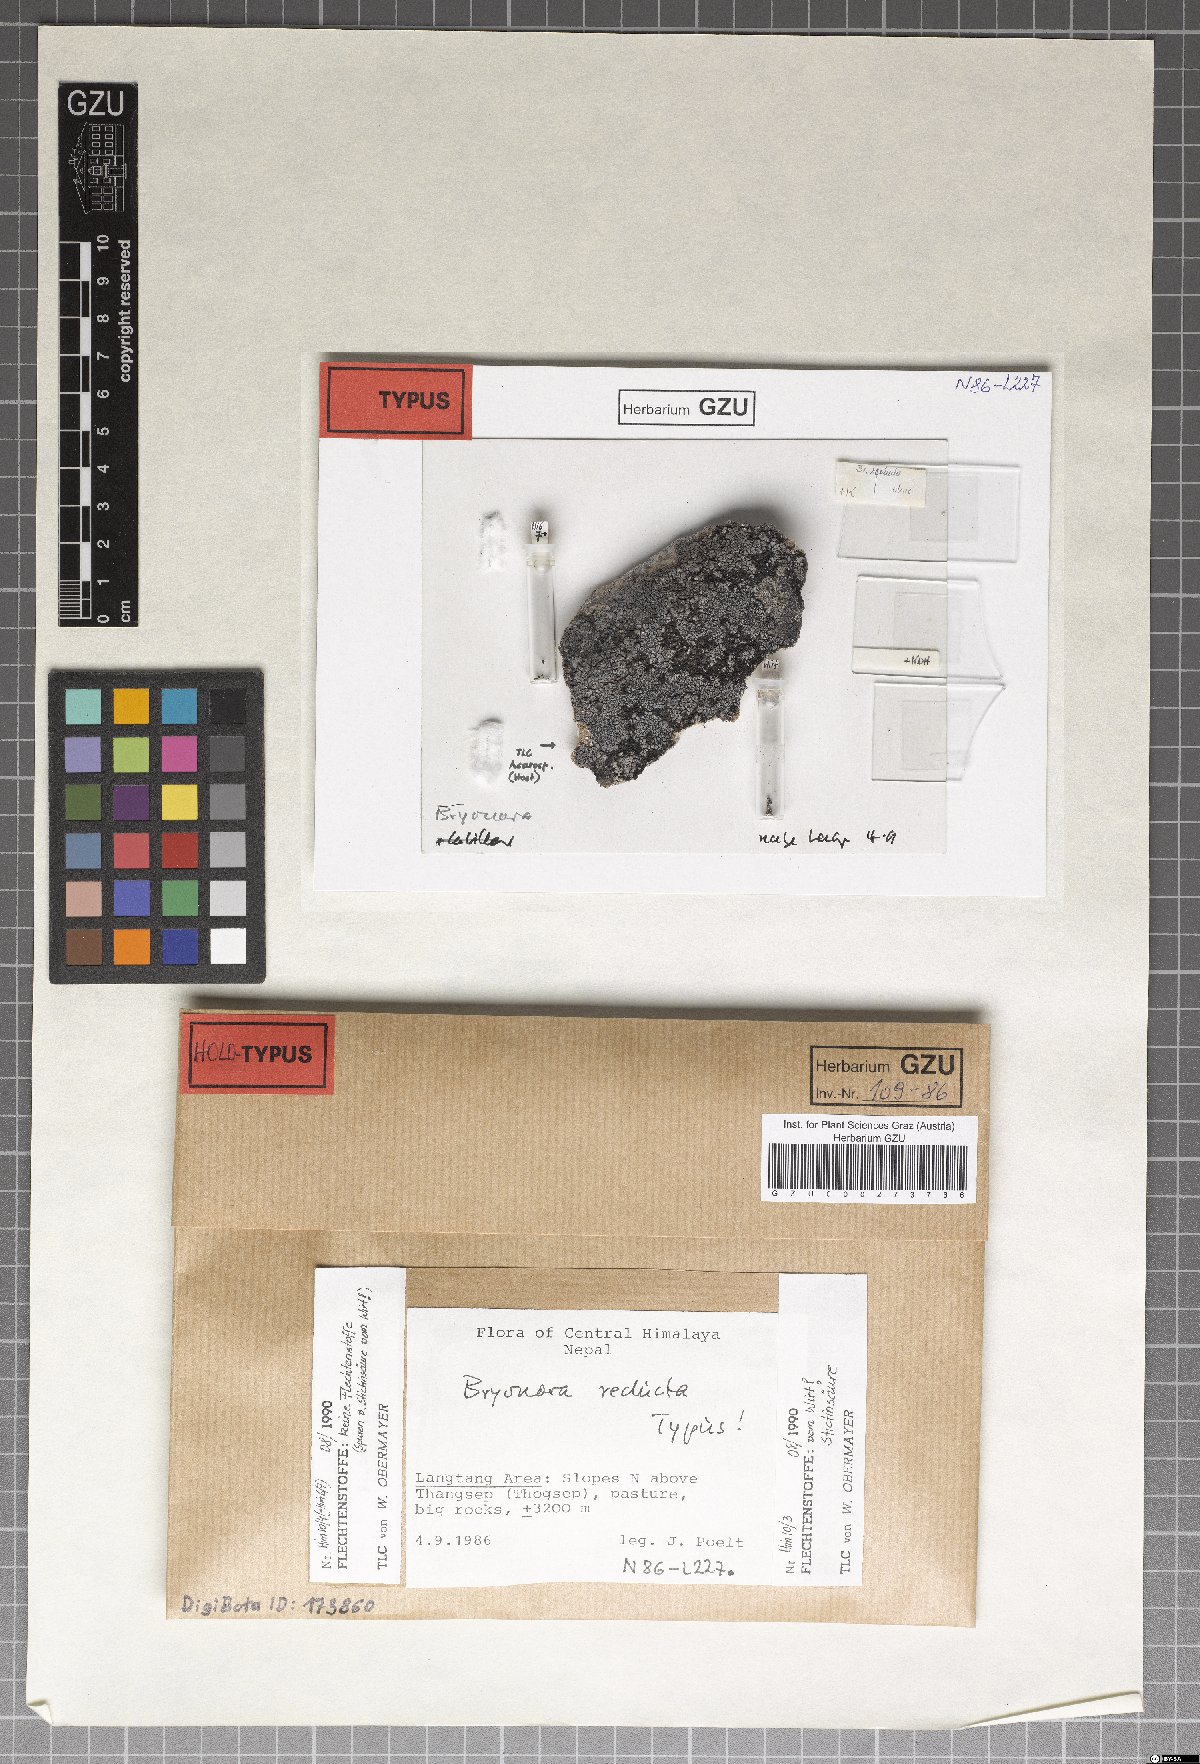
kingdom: Fungi
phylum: Ascomycota
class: Lecanoromycetes
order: Lecanorales
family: Lecanoraceae
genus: Bryonora
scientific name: Bryonora reducta
